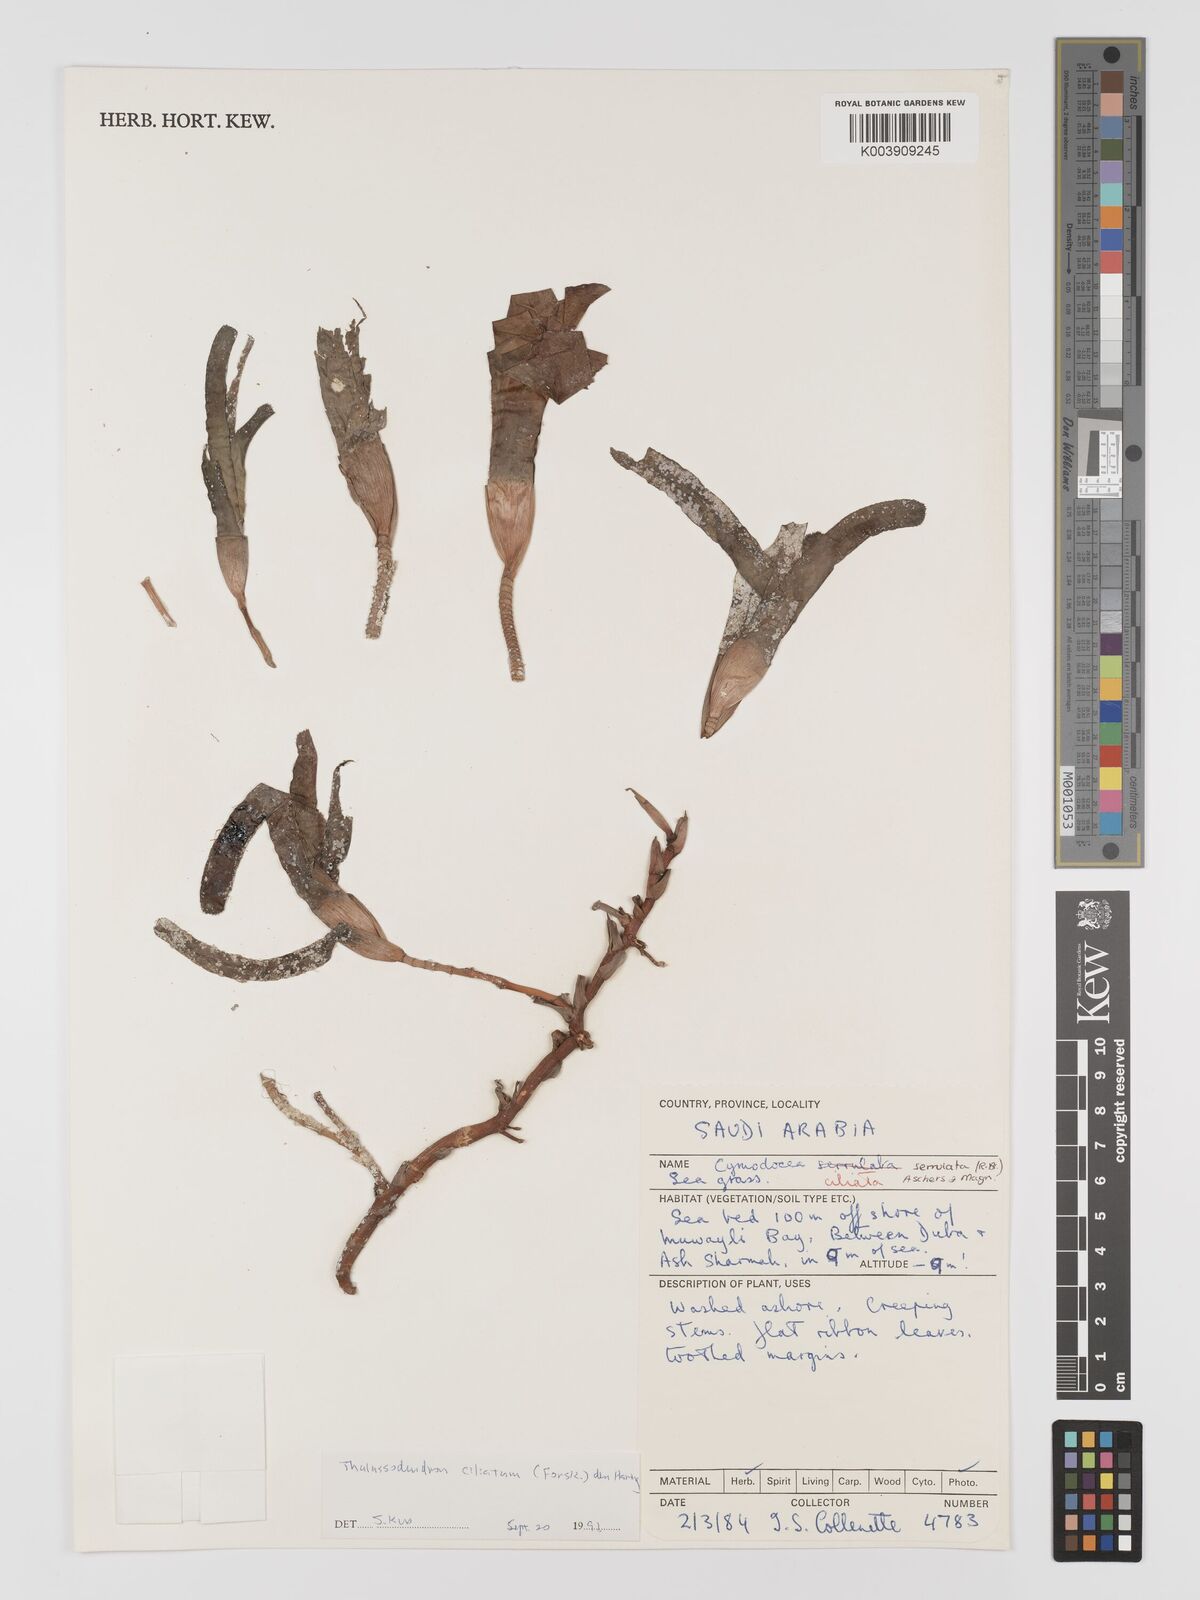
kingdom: Plantae
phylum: Tracheophyta
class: Liliopsida
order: Alismatales
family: Cymodoceaceae
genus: Thalassodendron
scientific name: Thalassodendron ciliatum
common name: Species code: tc
